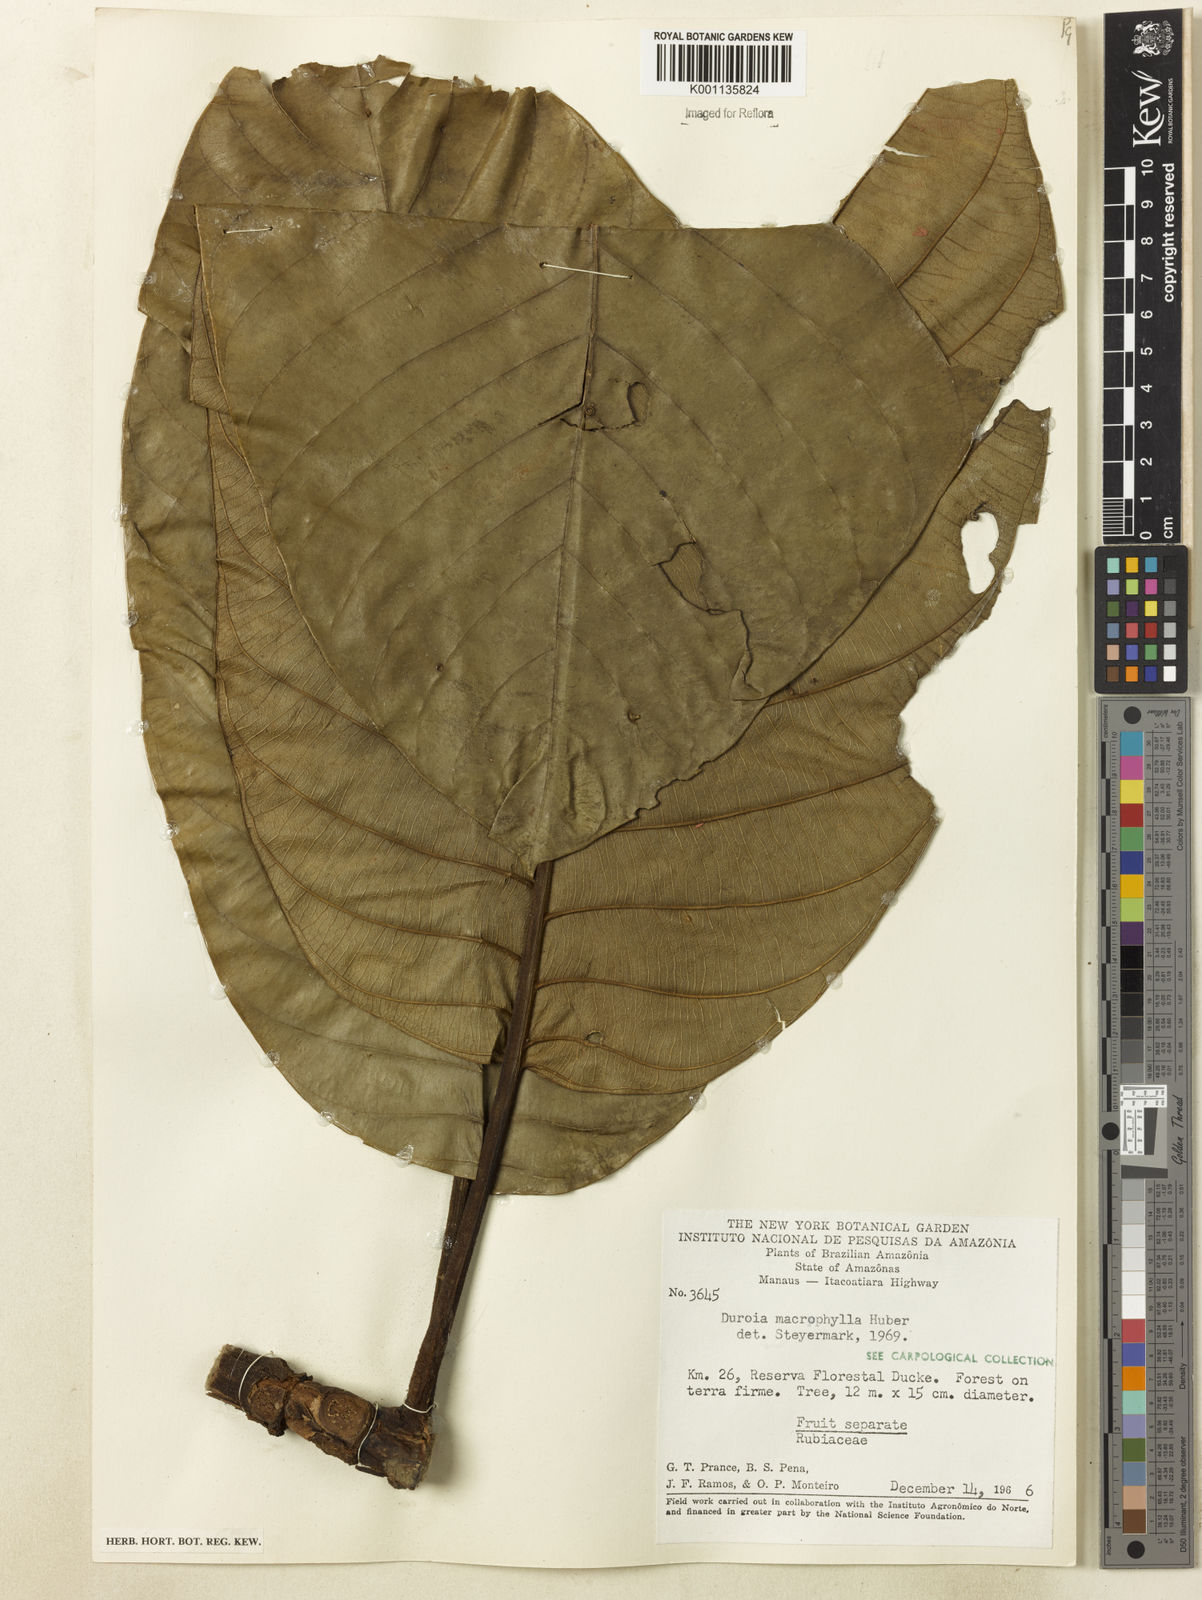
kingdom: Plantae
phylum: Tracheophyta
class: Magnoliopsida
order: Gentianales
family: Rubiaceae
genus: Duroia
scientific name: Duroia macrophylla
